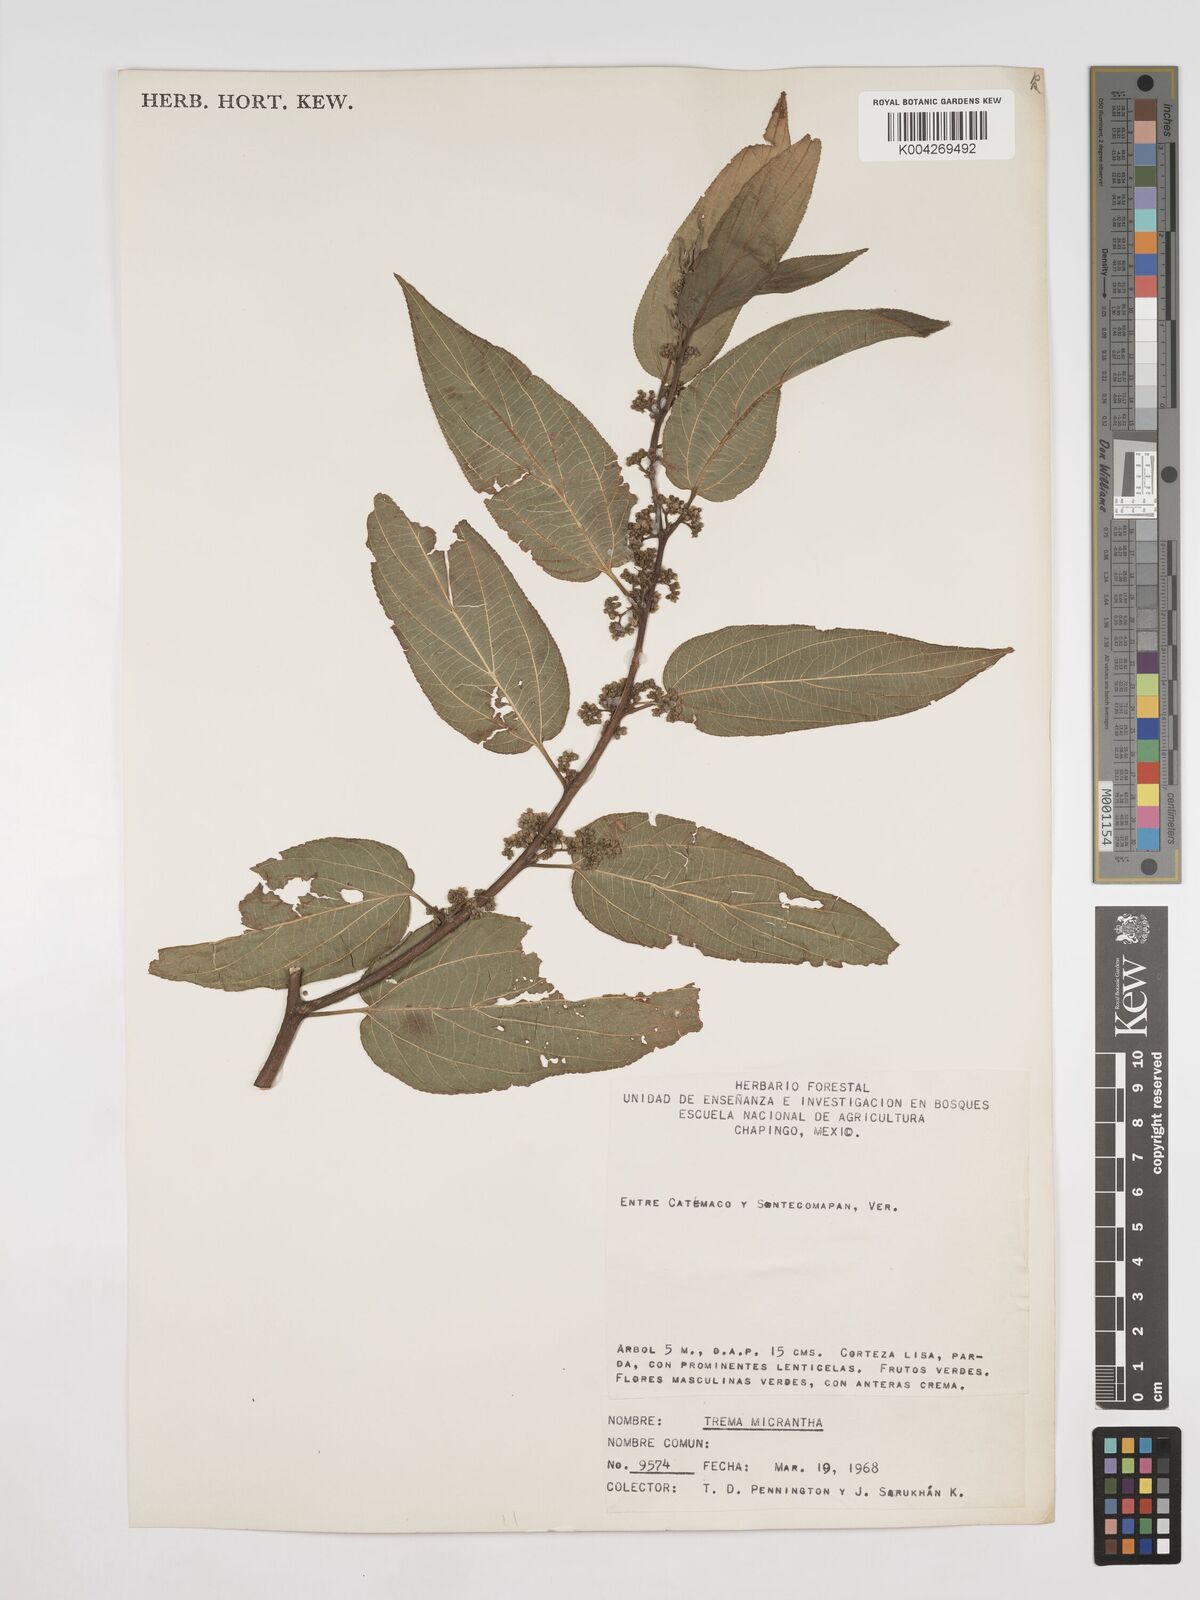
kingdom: Plantae
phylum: Tracheophyta
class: Magnoliopsida
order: Rosales
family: Cannabaceae
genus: Trema
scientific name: Trema micranthum
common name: Jamaican nettletree
